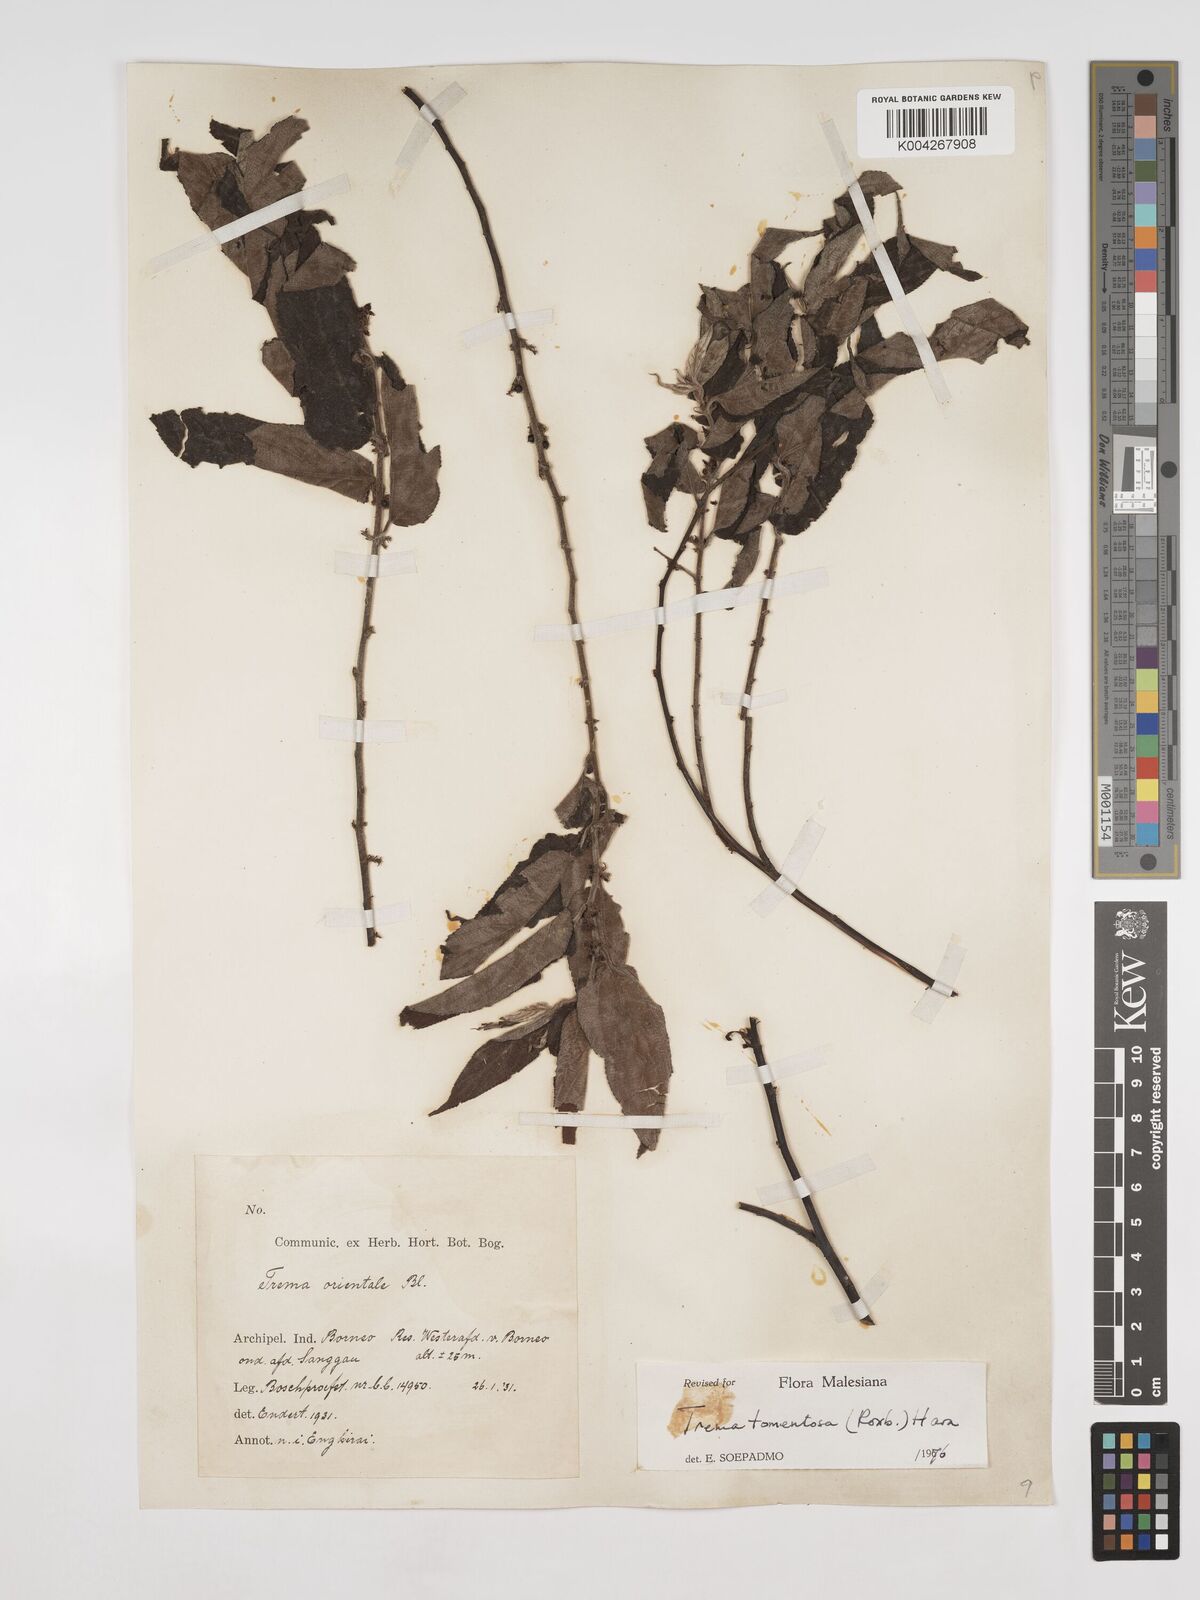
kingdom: Plantae
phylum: Tracheophyta
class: Magnoliopsida
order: Rosales
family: Cannabaceae
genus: Trema
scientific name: Trema tomentosum
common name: Peach-leaf-poisonbush
